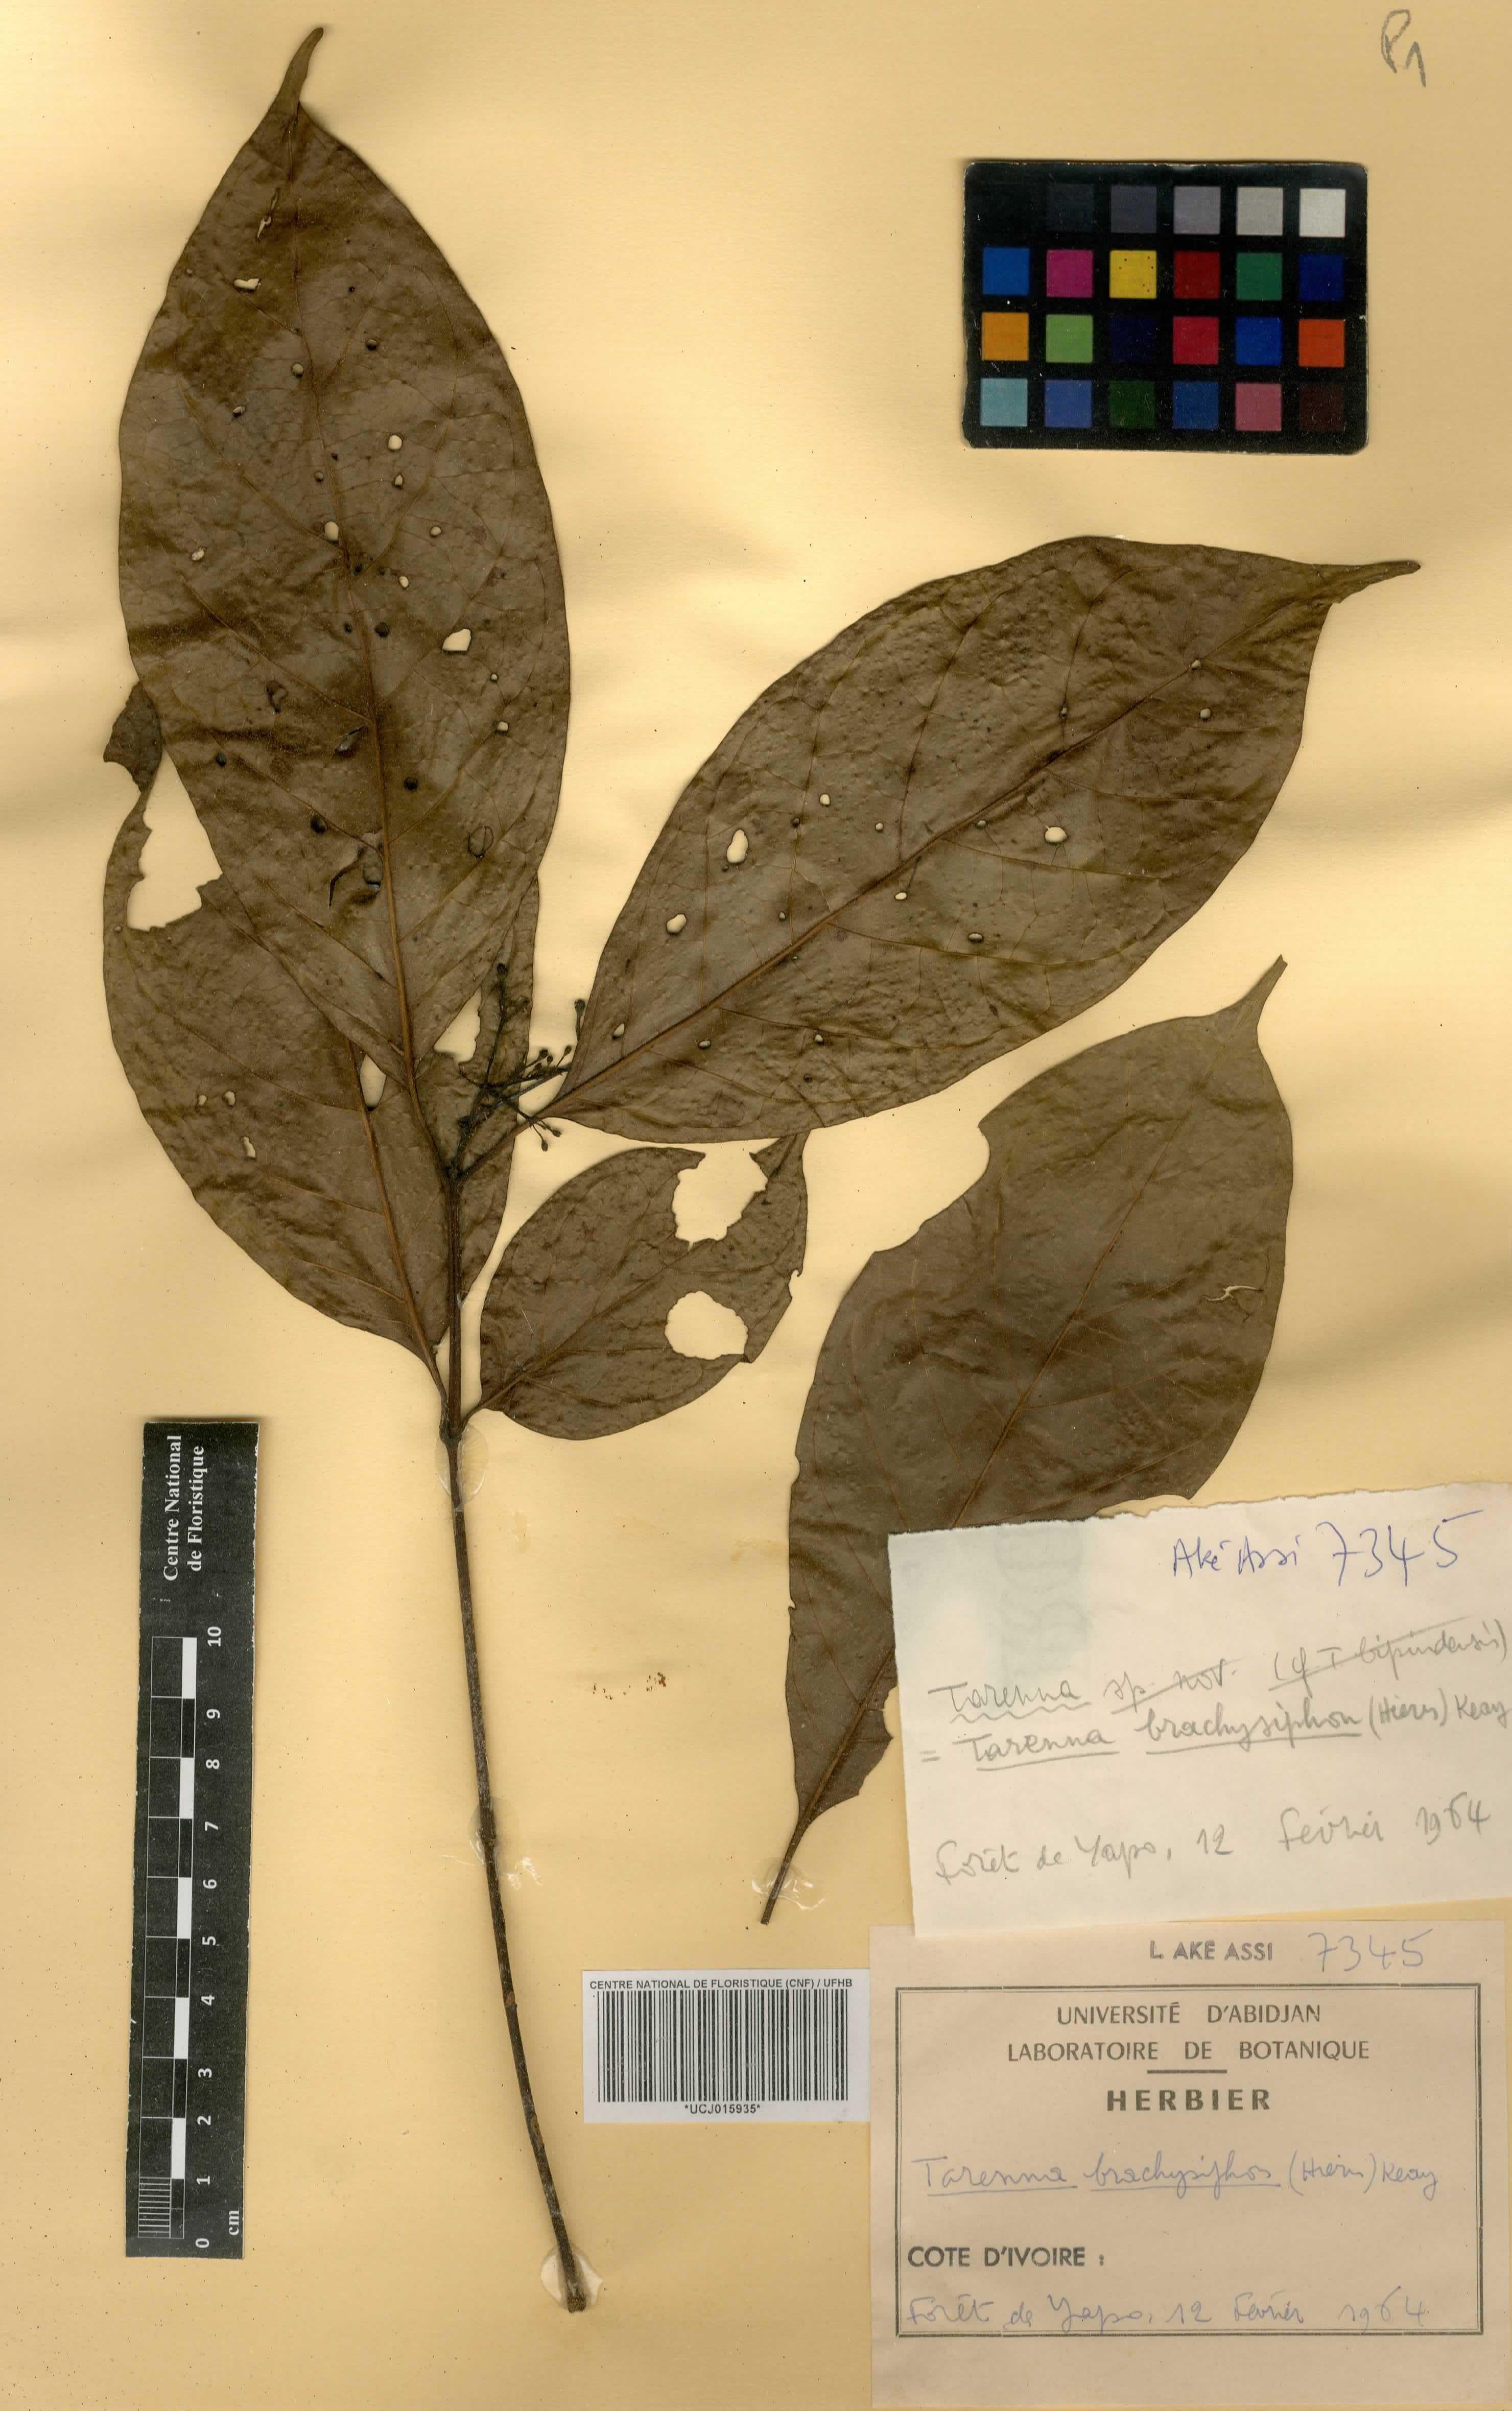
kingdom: Plantae
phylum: Tracheophyta
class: Magnoliopsida
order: Gentianales
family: Rubiaceae
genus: Tarenna
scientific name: Tarenna brachysiphon
